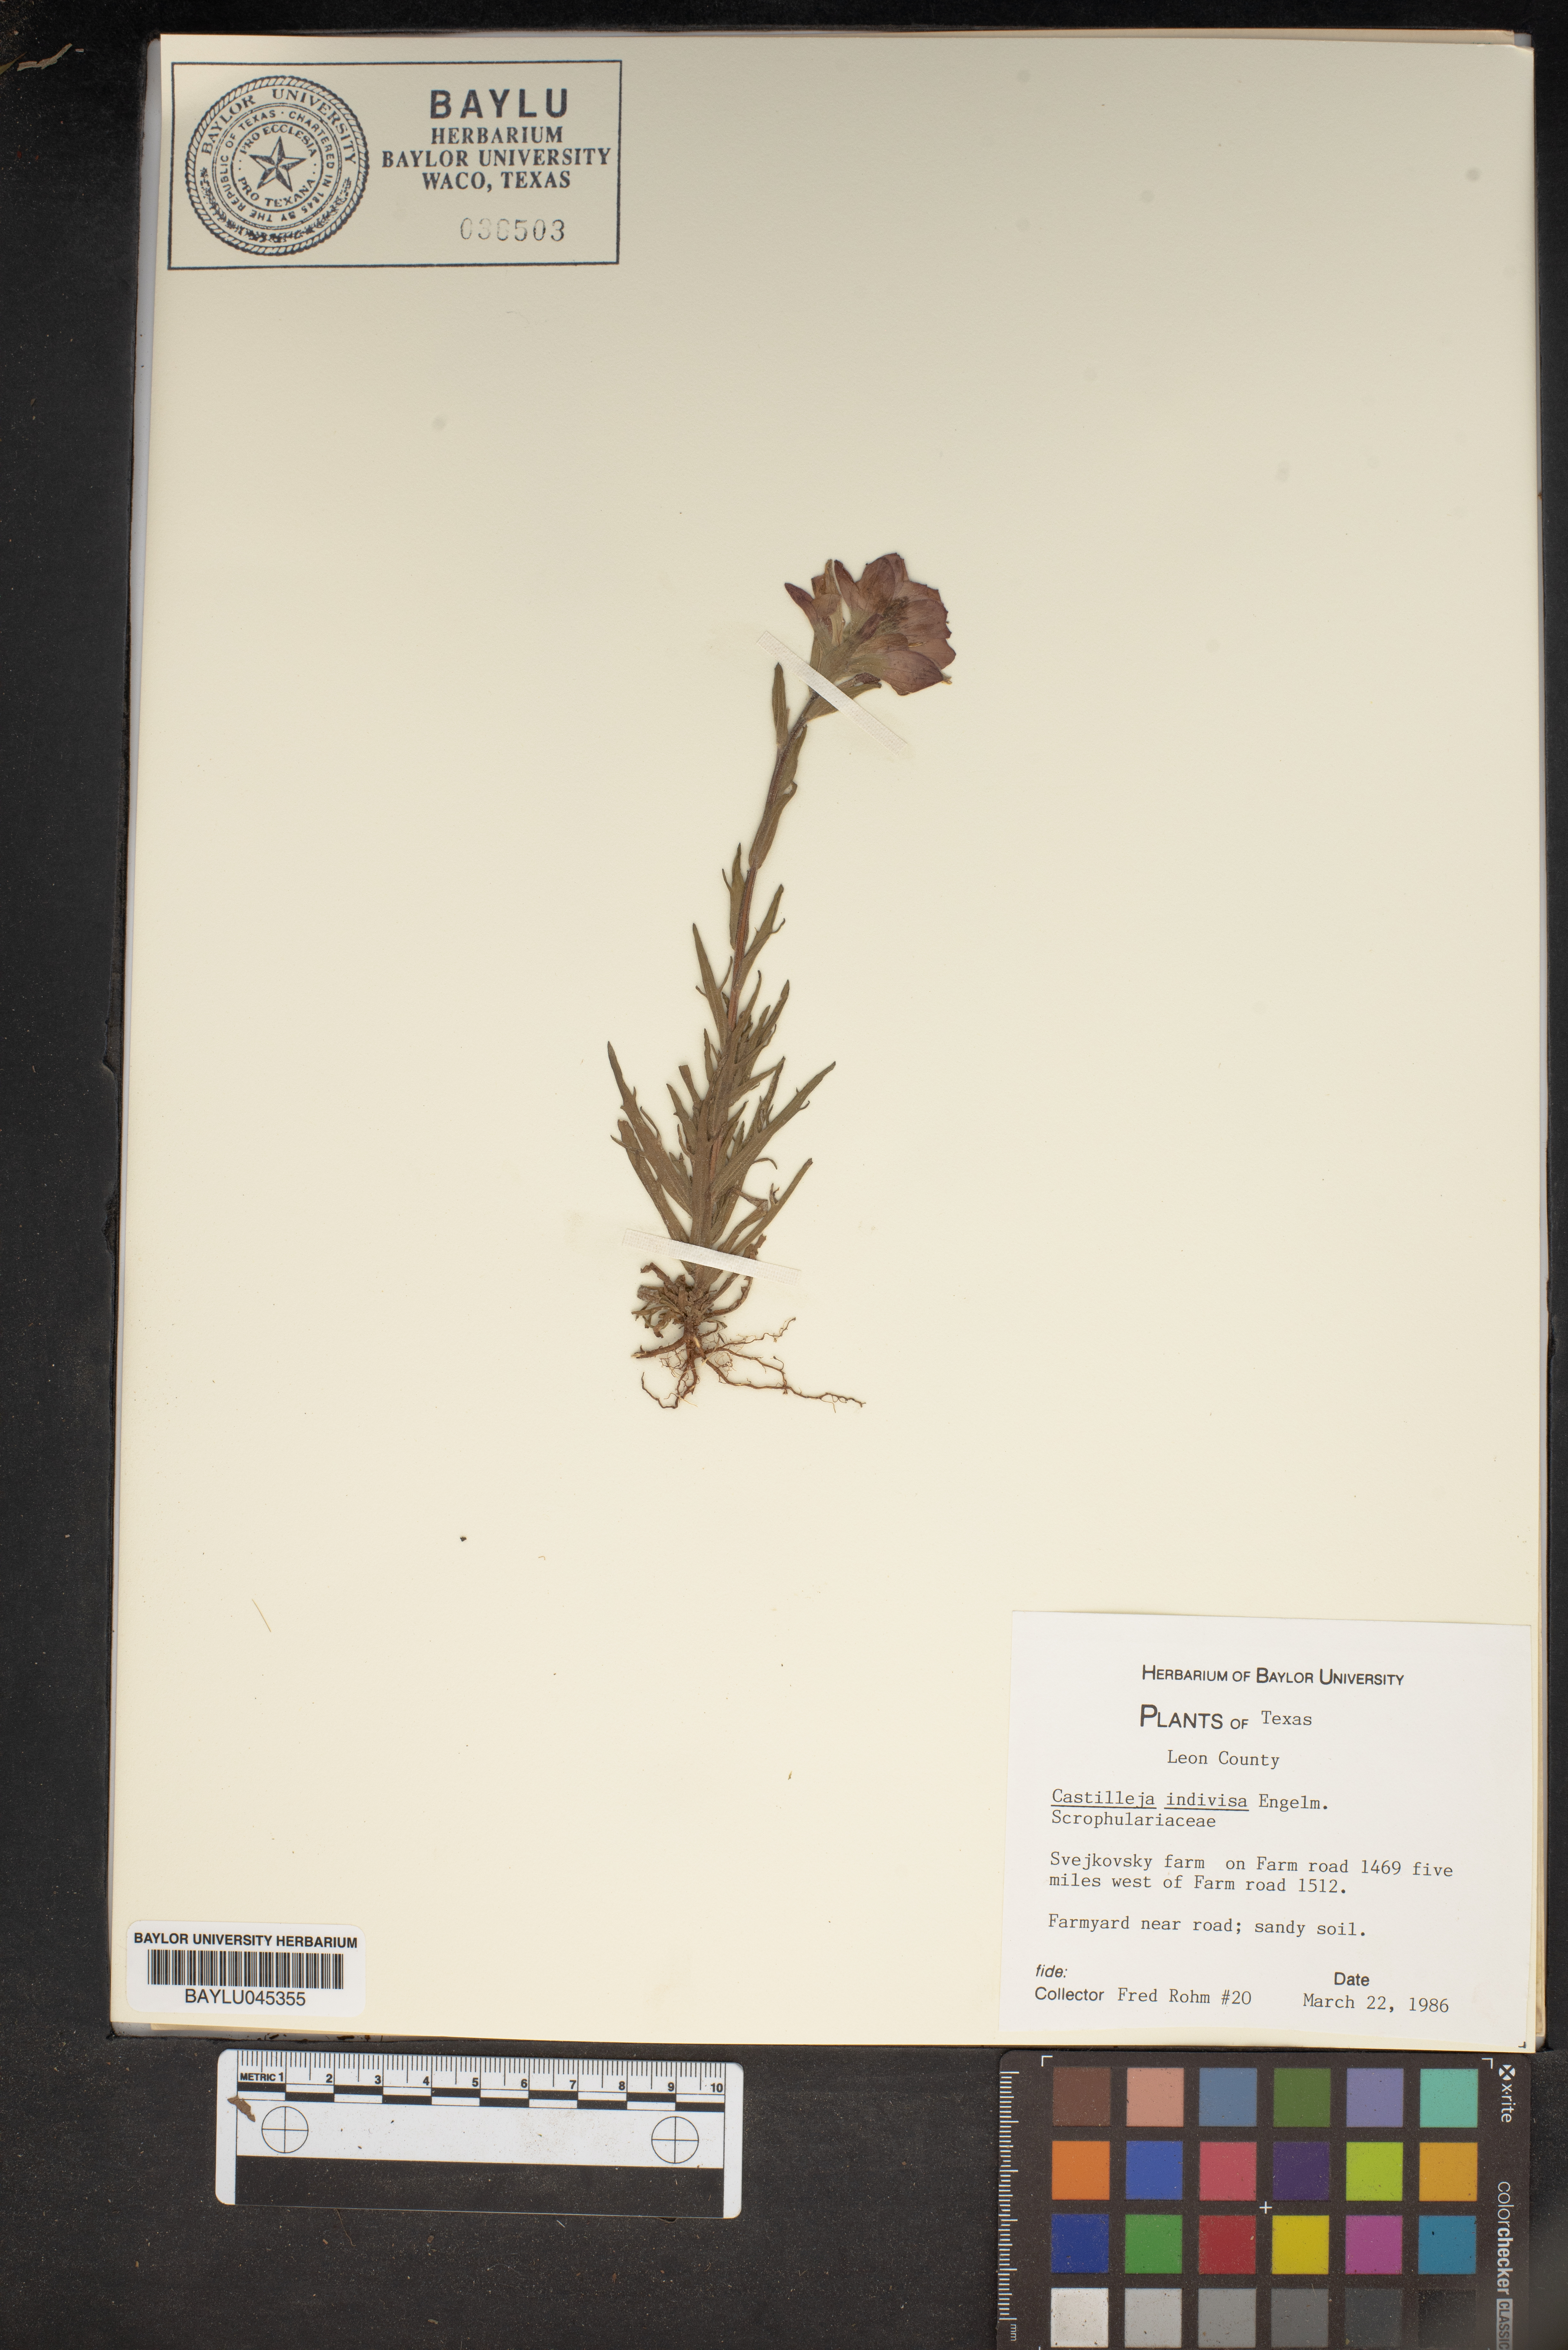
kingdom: Plantae
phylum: Tracheophyta
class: Magnoliopsida
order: Lamiales
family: Orobanchaceae
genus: Castilleja
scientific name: Castilleja indivisa
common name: Texas paintbrush
